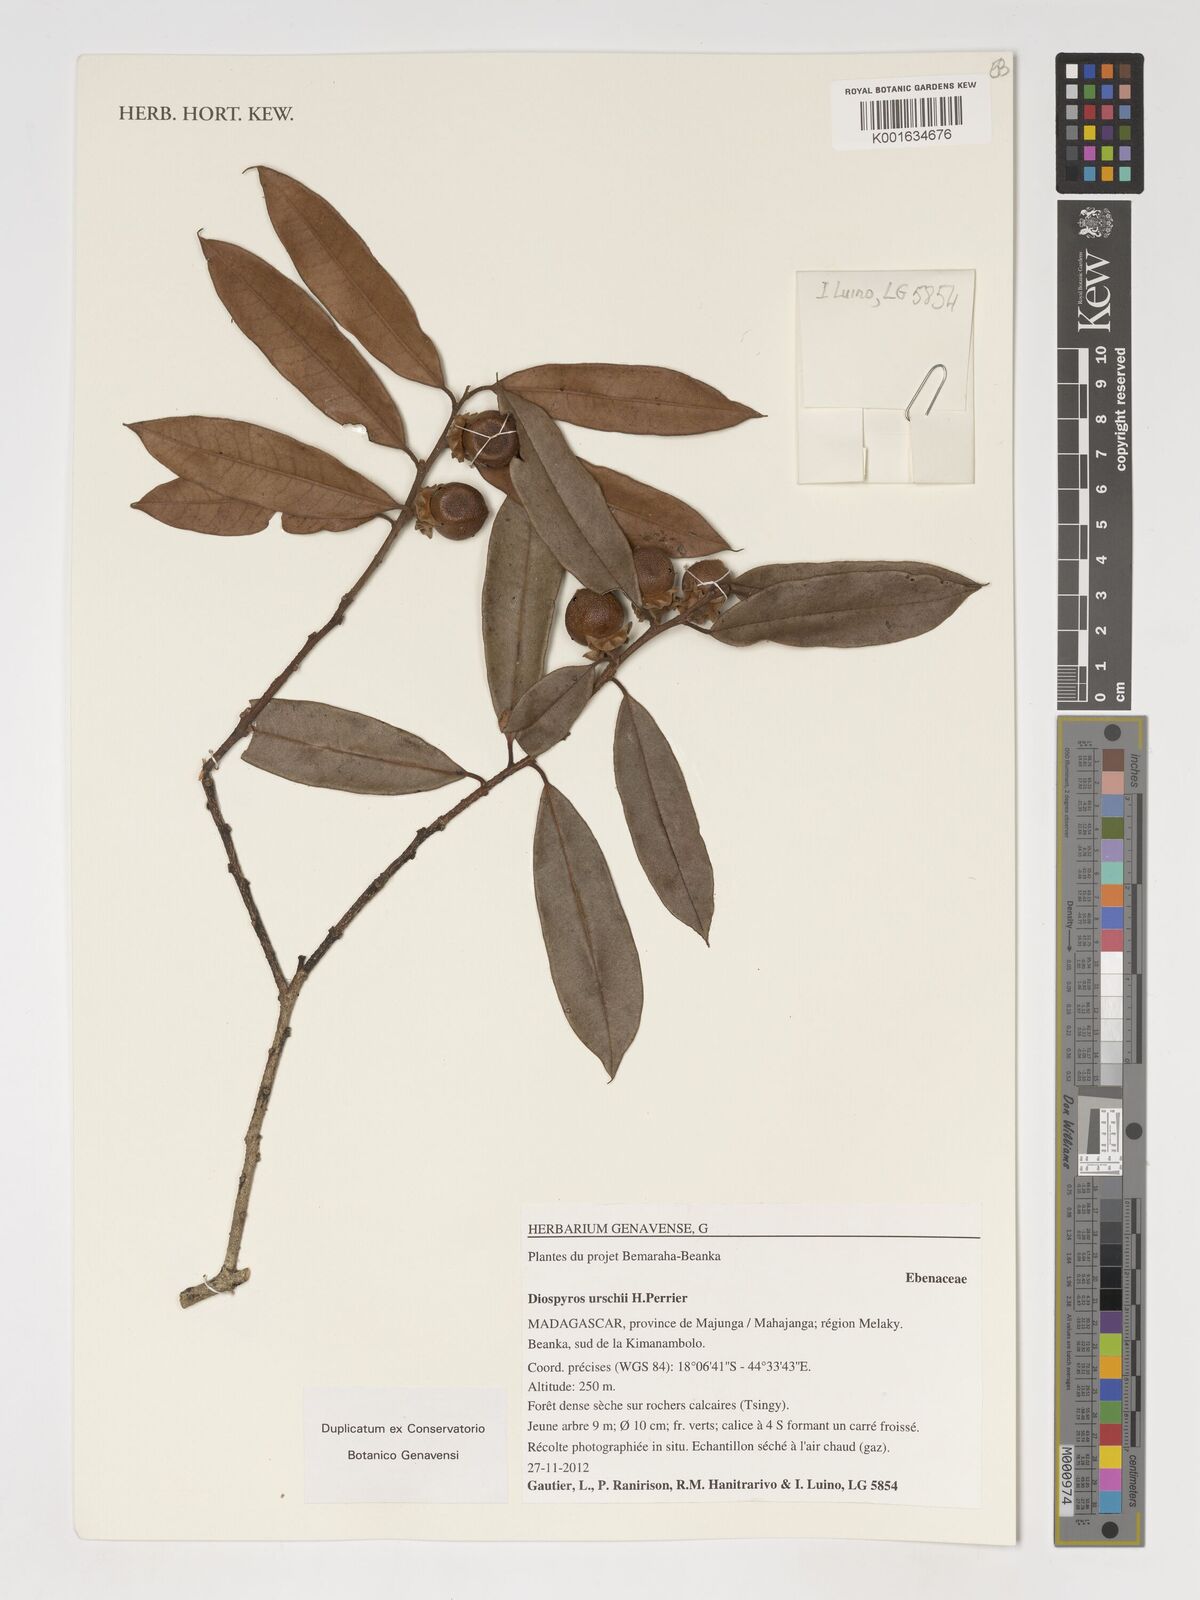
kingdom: Plantae
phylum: Tracheophyta
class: Magnoliopsida
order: Ericales
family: Ebenaceae
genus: Diospyros
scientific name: Diospyros urschii
